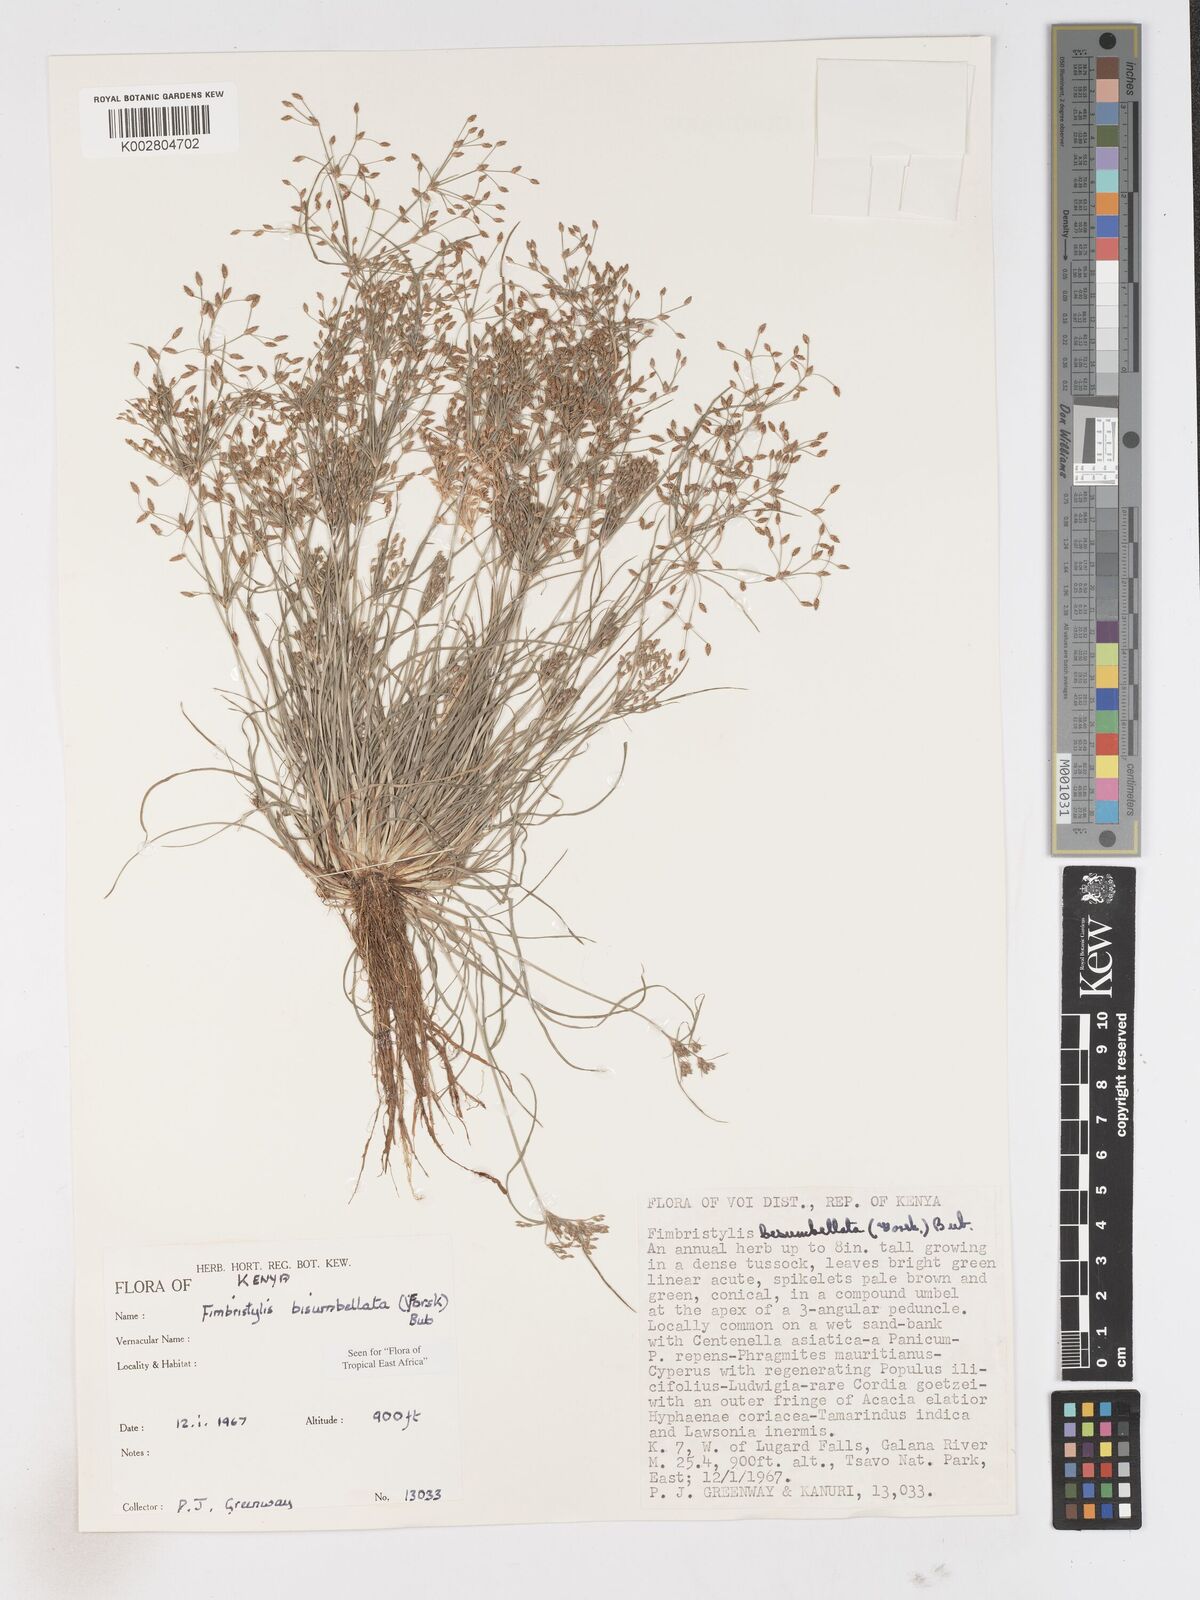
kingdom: Plantae
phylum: Tracheophyta
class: Liliopsida
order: Poales
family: Cyperaceae
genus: Fimbristylis
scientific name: Fimbristylis bisumbellata
